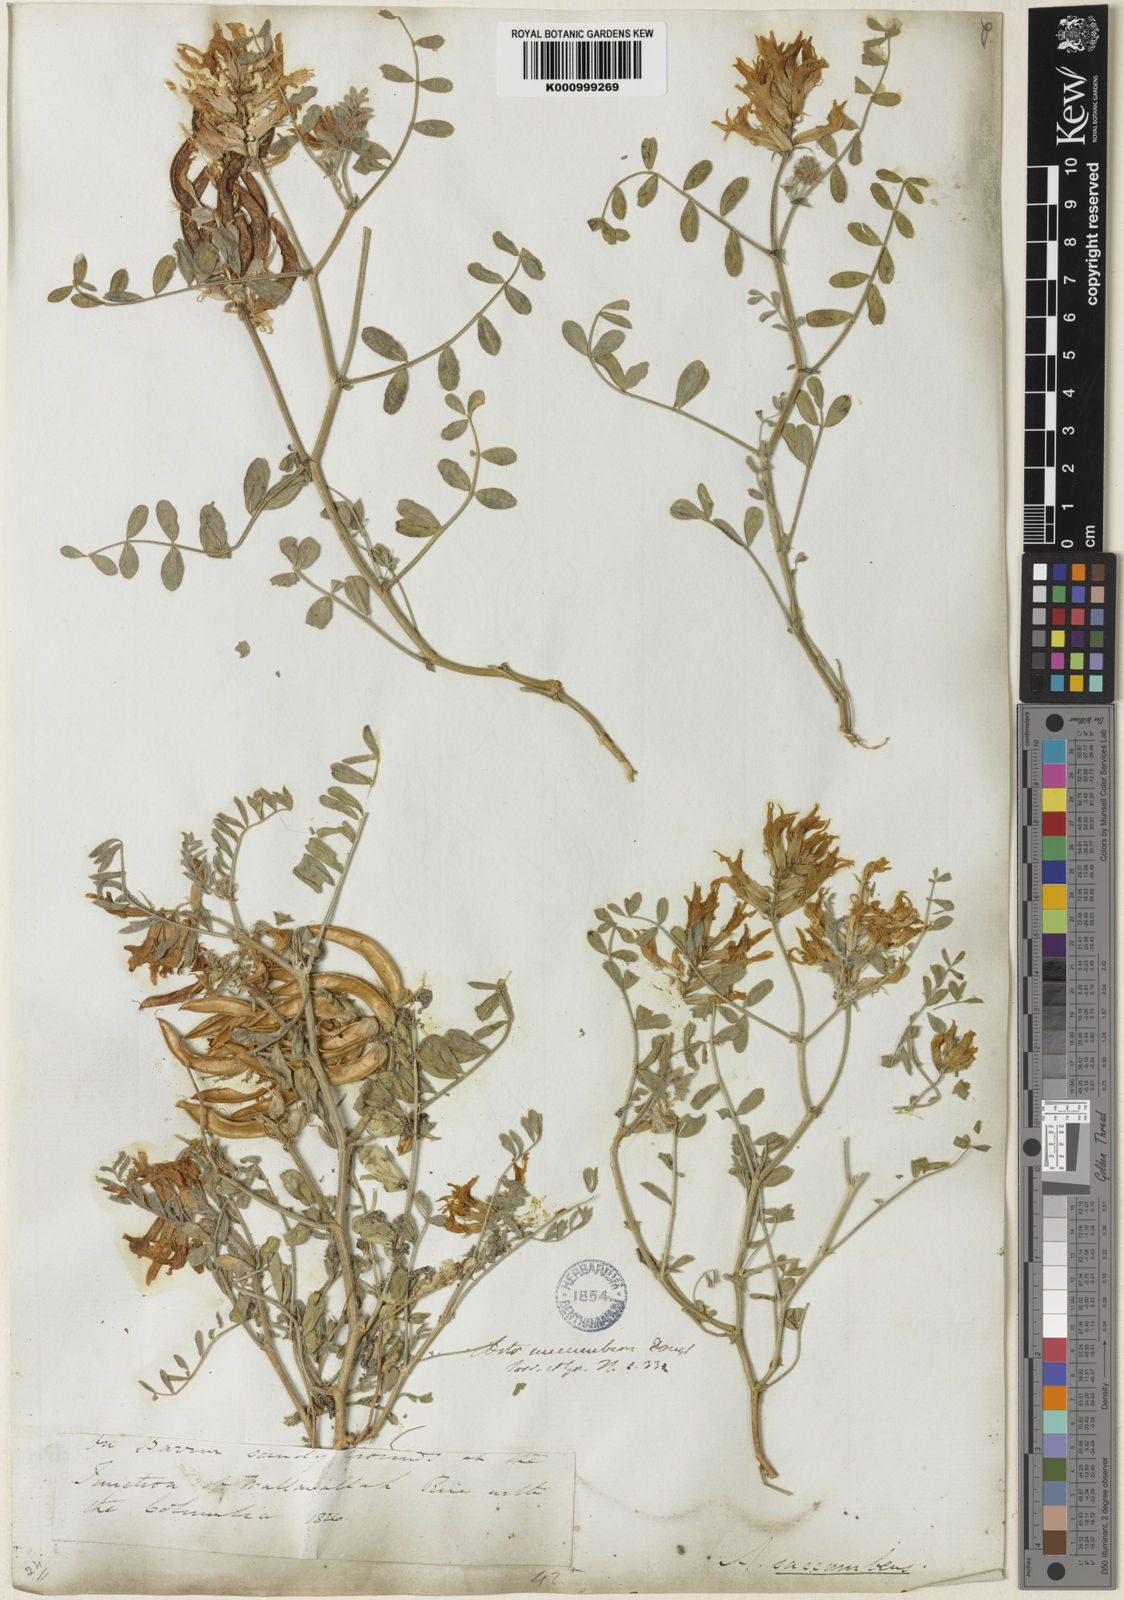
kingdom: Plantae
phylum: Tracheophyta
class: Magnoliopsida
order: Fabales
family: Fabaceae
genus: Astragalus
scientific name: Astragalus
